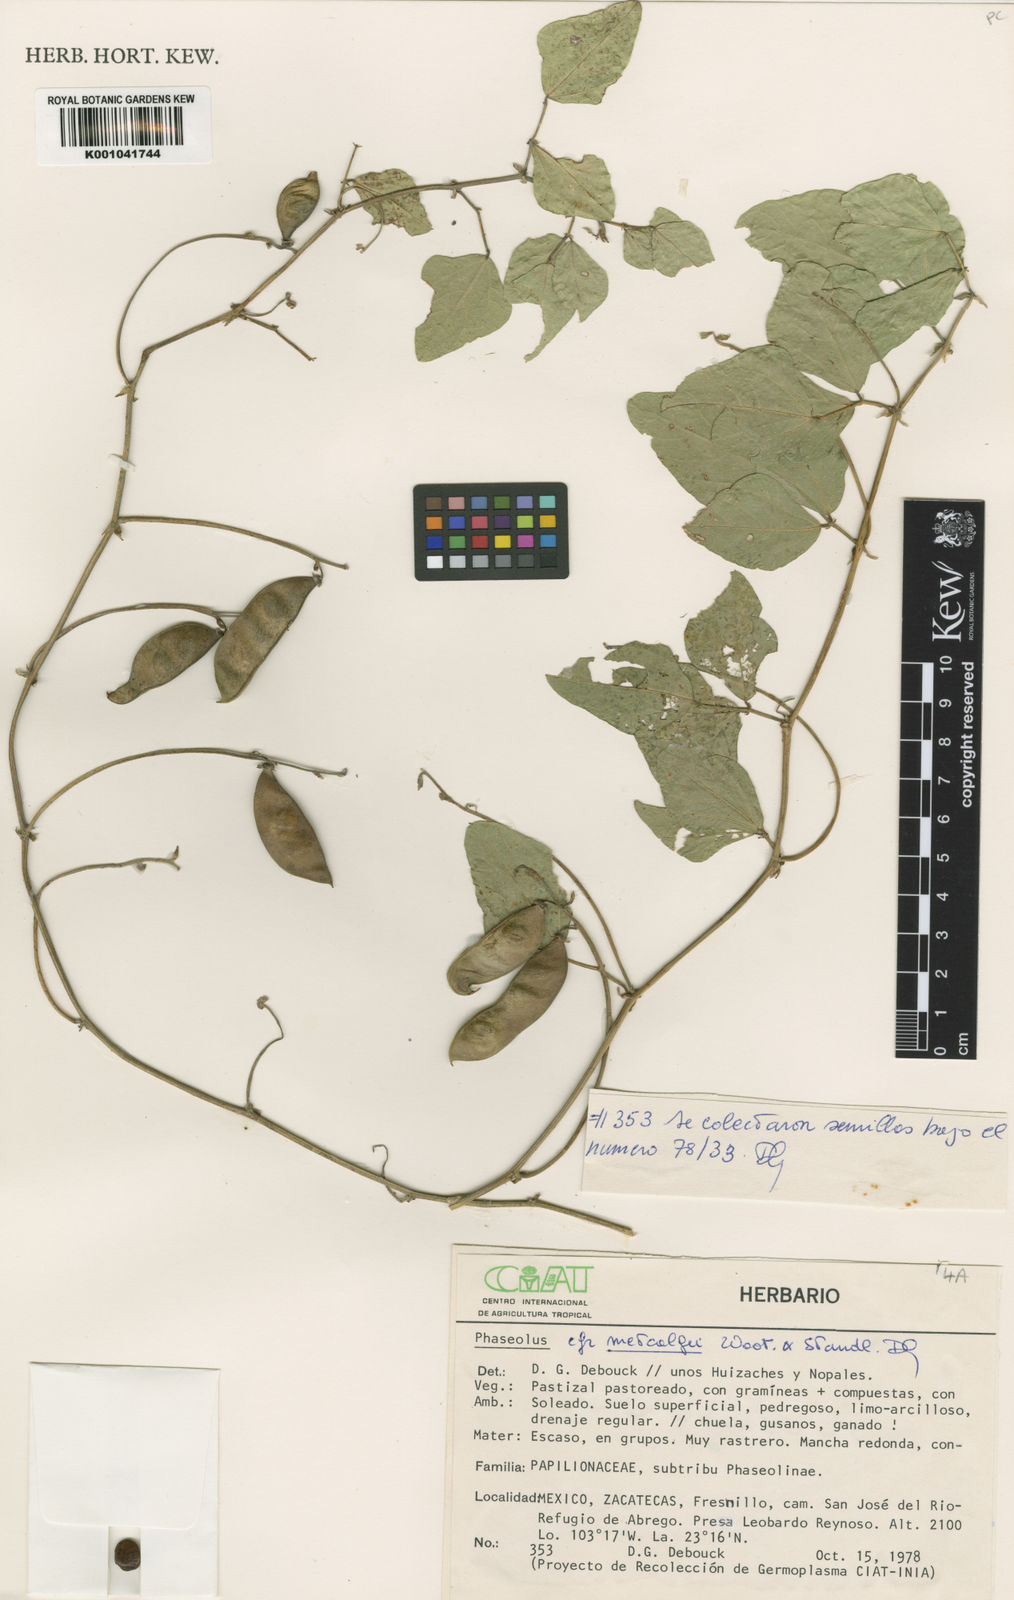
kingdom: Plantae
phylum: Tracheophyta
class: Magnoliopsida
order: Fabales
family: Fabaceae
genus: Phaseolus
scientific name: Phaseolus
